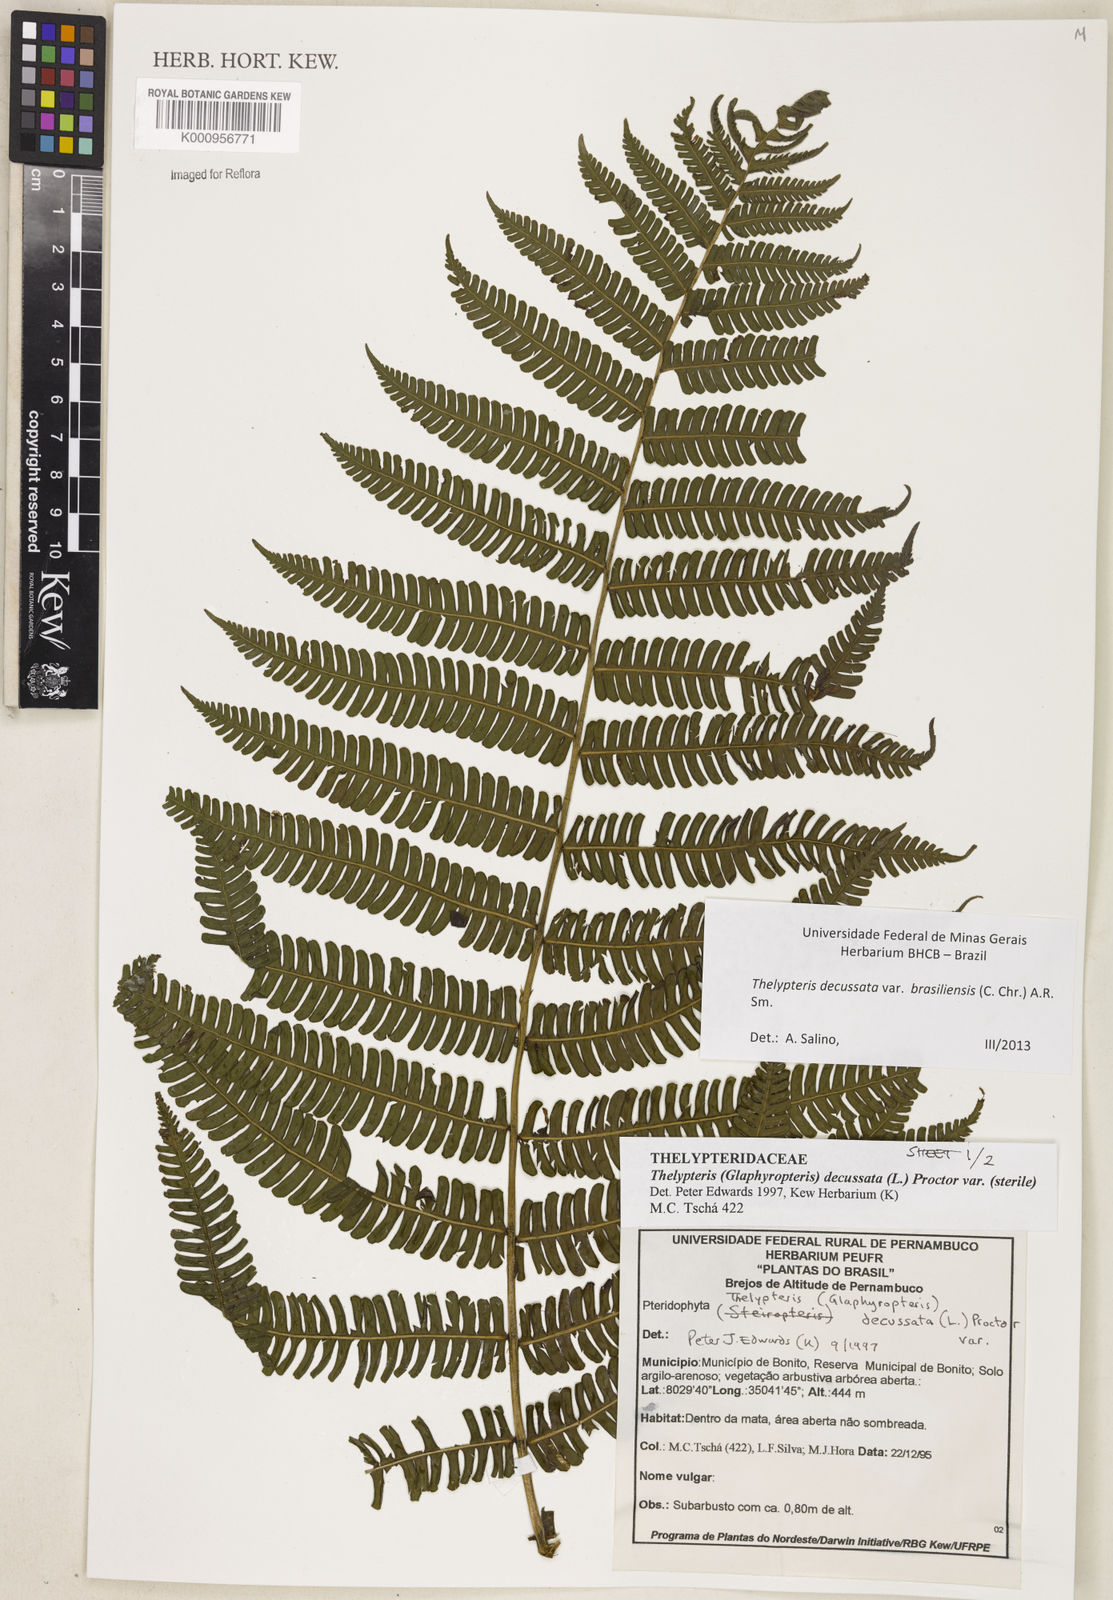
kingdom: Plantae
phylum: Tracheophyta
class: Polypodiopsida
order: Polypodiales
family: Thelypteridaceae
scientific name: Thelypteridaceae
